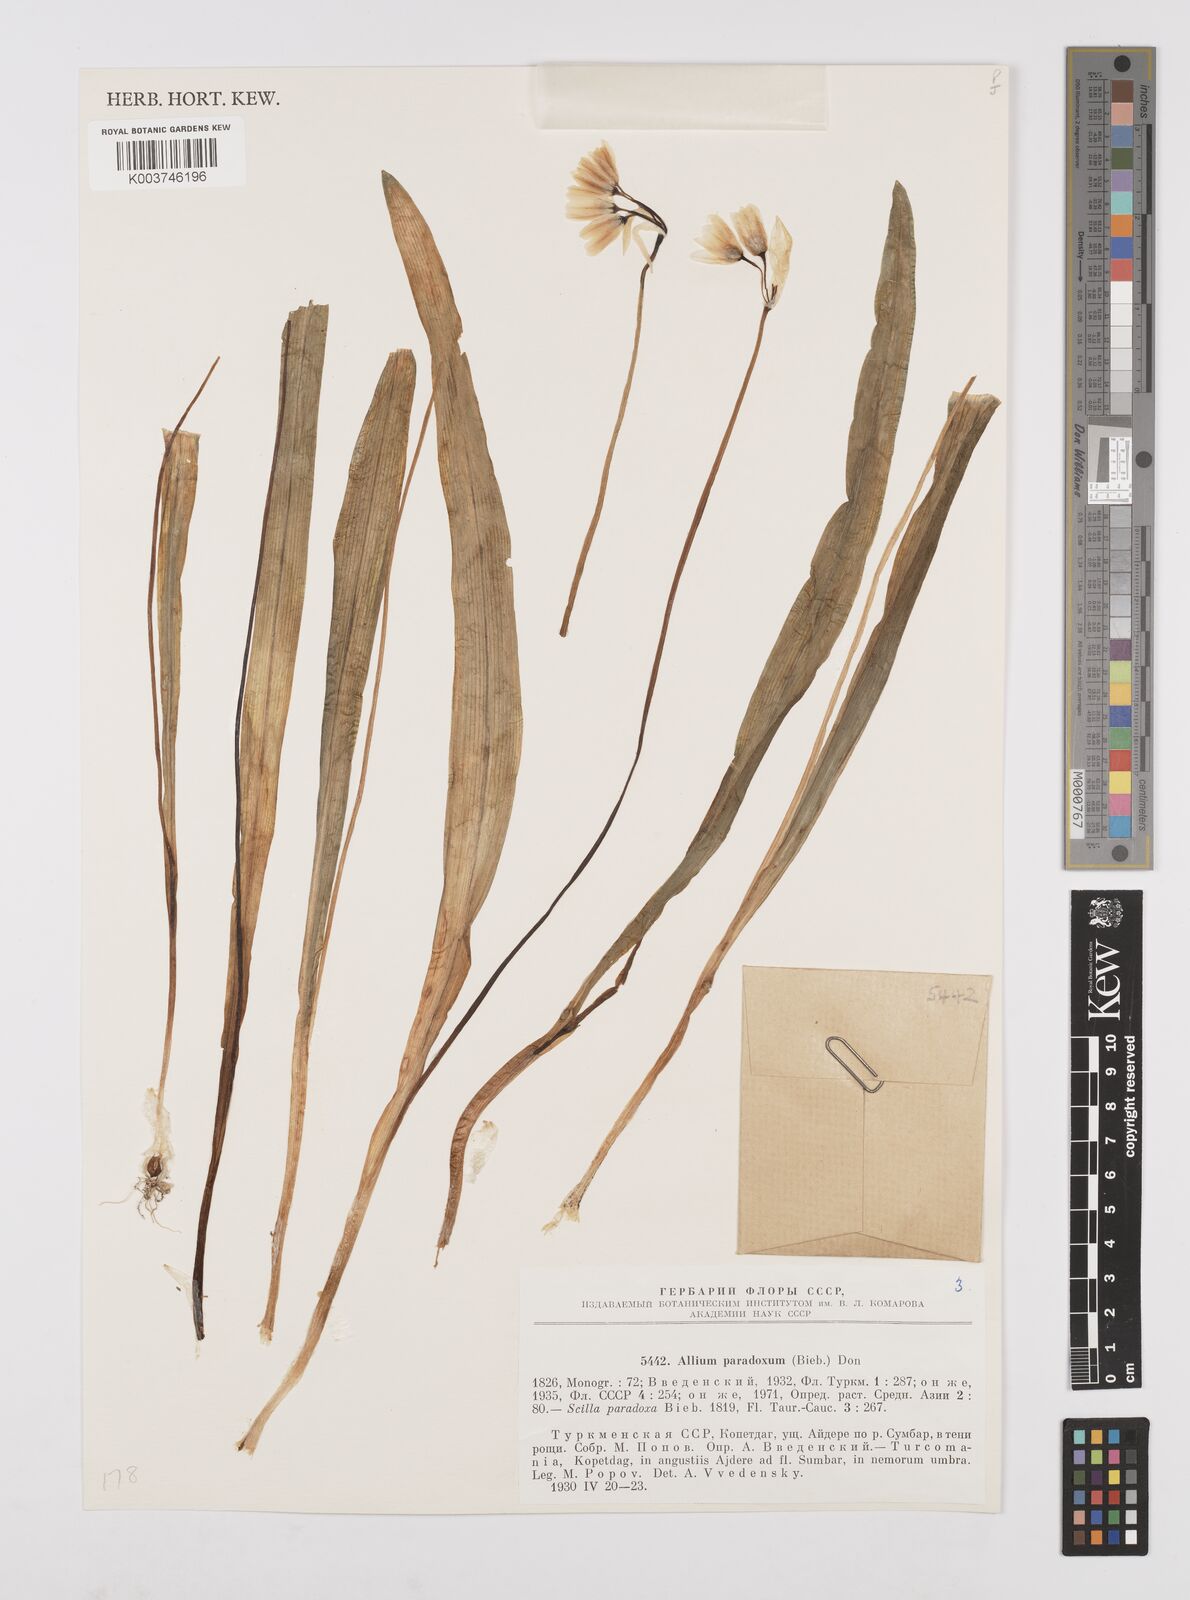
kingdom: Plantae
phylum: Tracheophyta
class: Liliopsida
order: Asparagales
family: Amaryllidaceae
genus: Allium
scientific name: Allium paradoxum
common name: Few-flowered garlic
